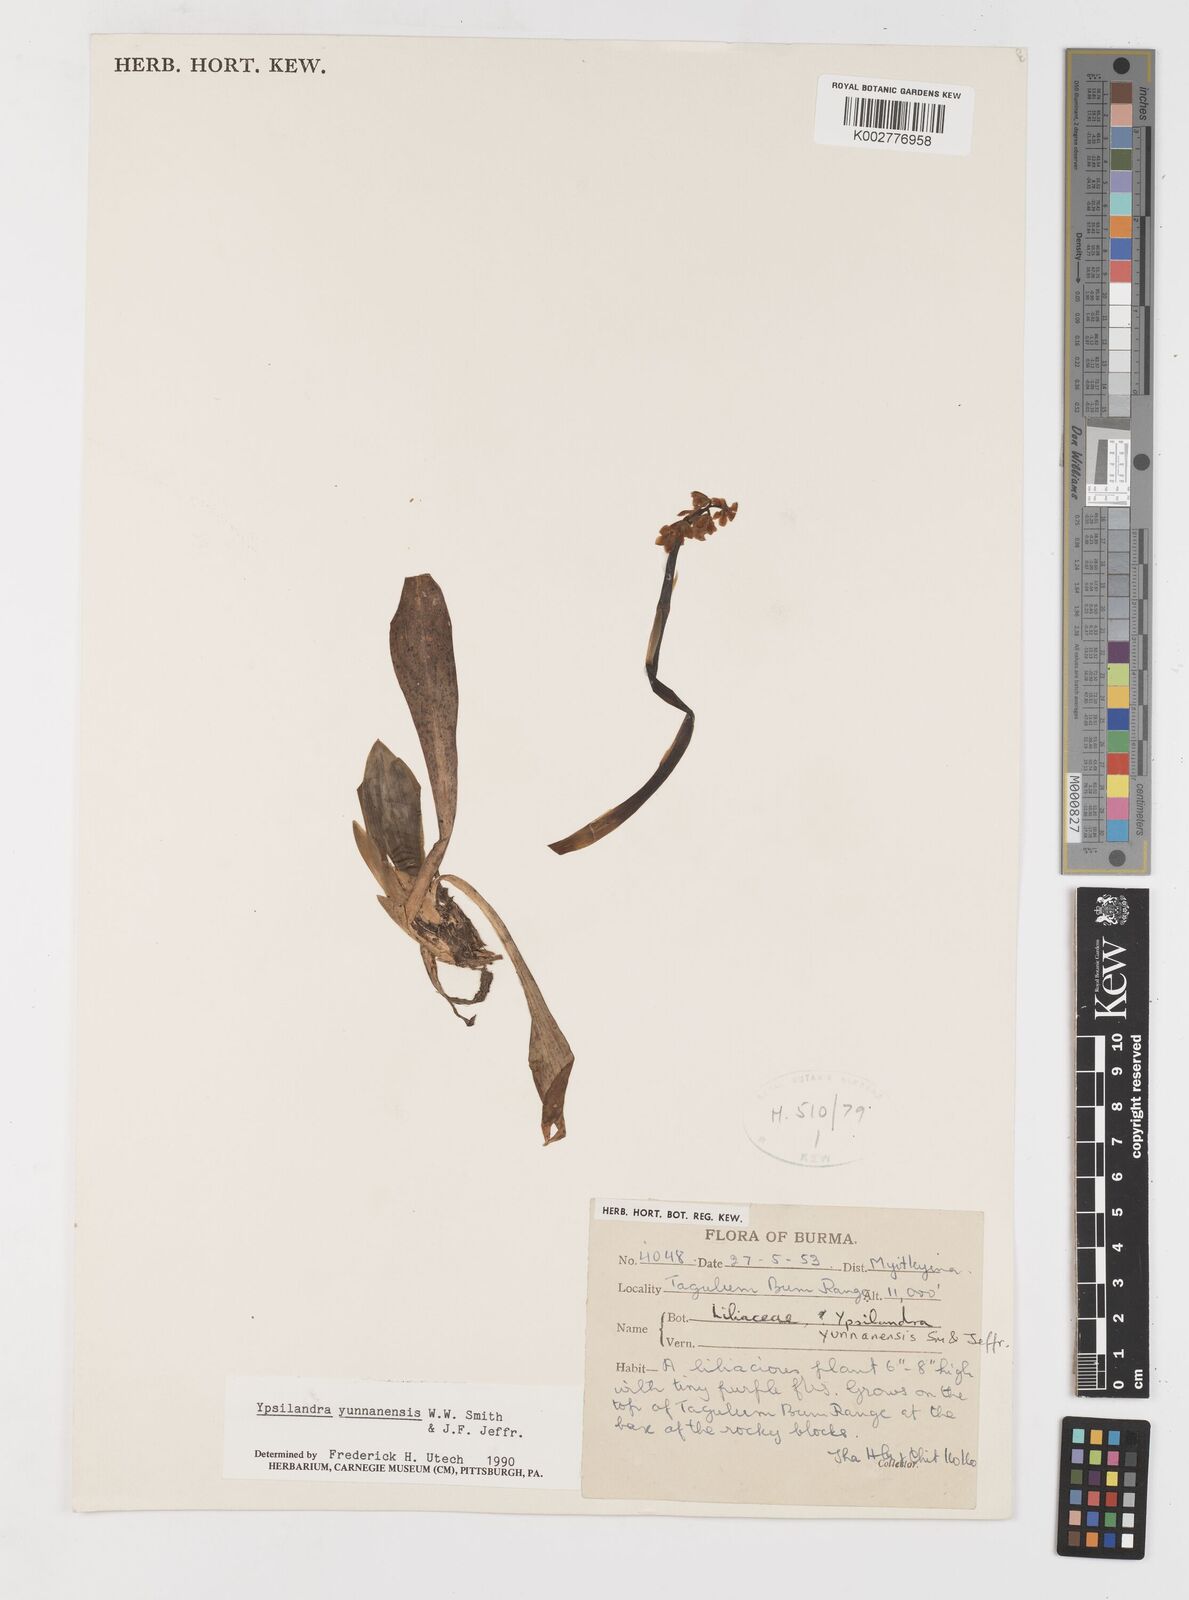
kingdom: Plantae
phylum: Tracheophyta
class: Liliopsida
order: Liliales
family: Melanthiaceae
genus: Helonias
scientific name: Helonias yunnanensis
